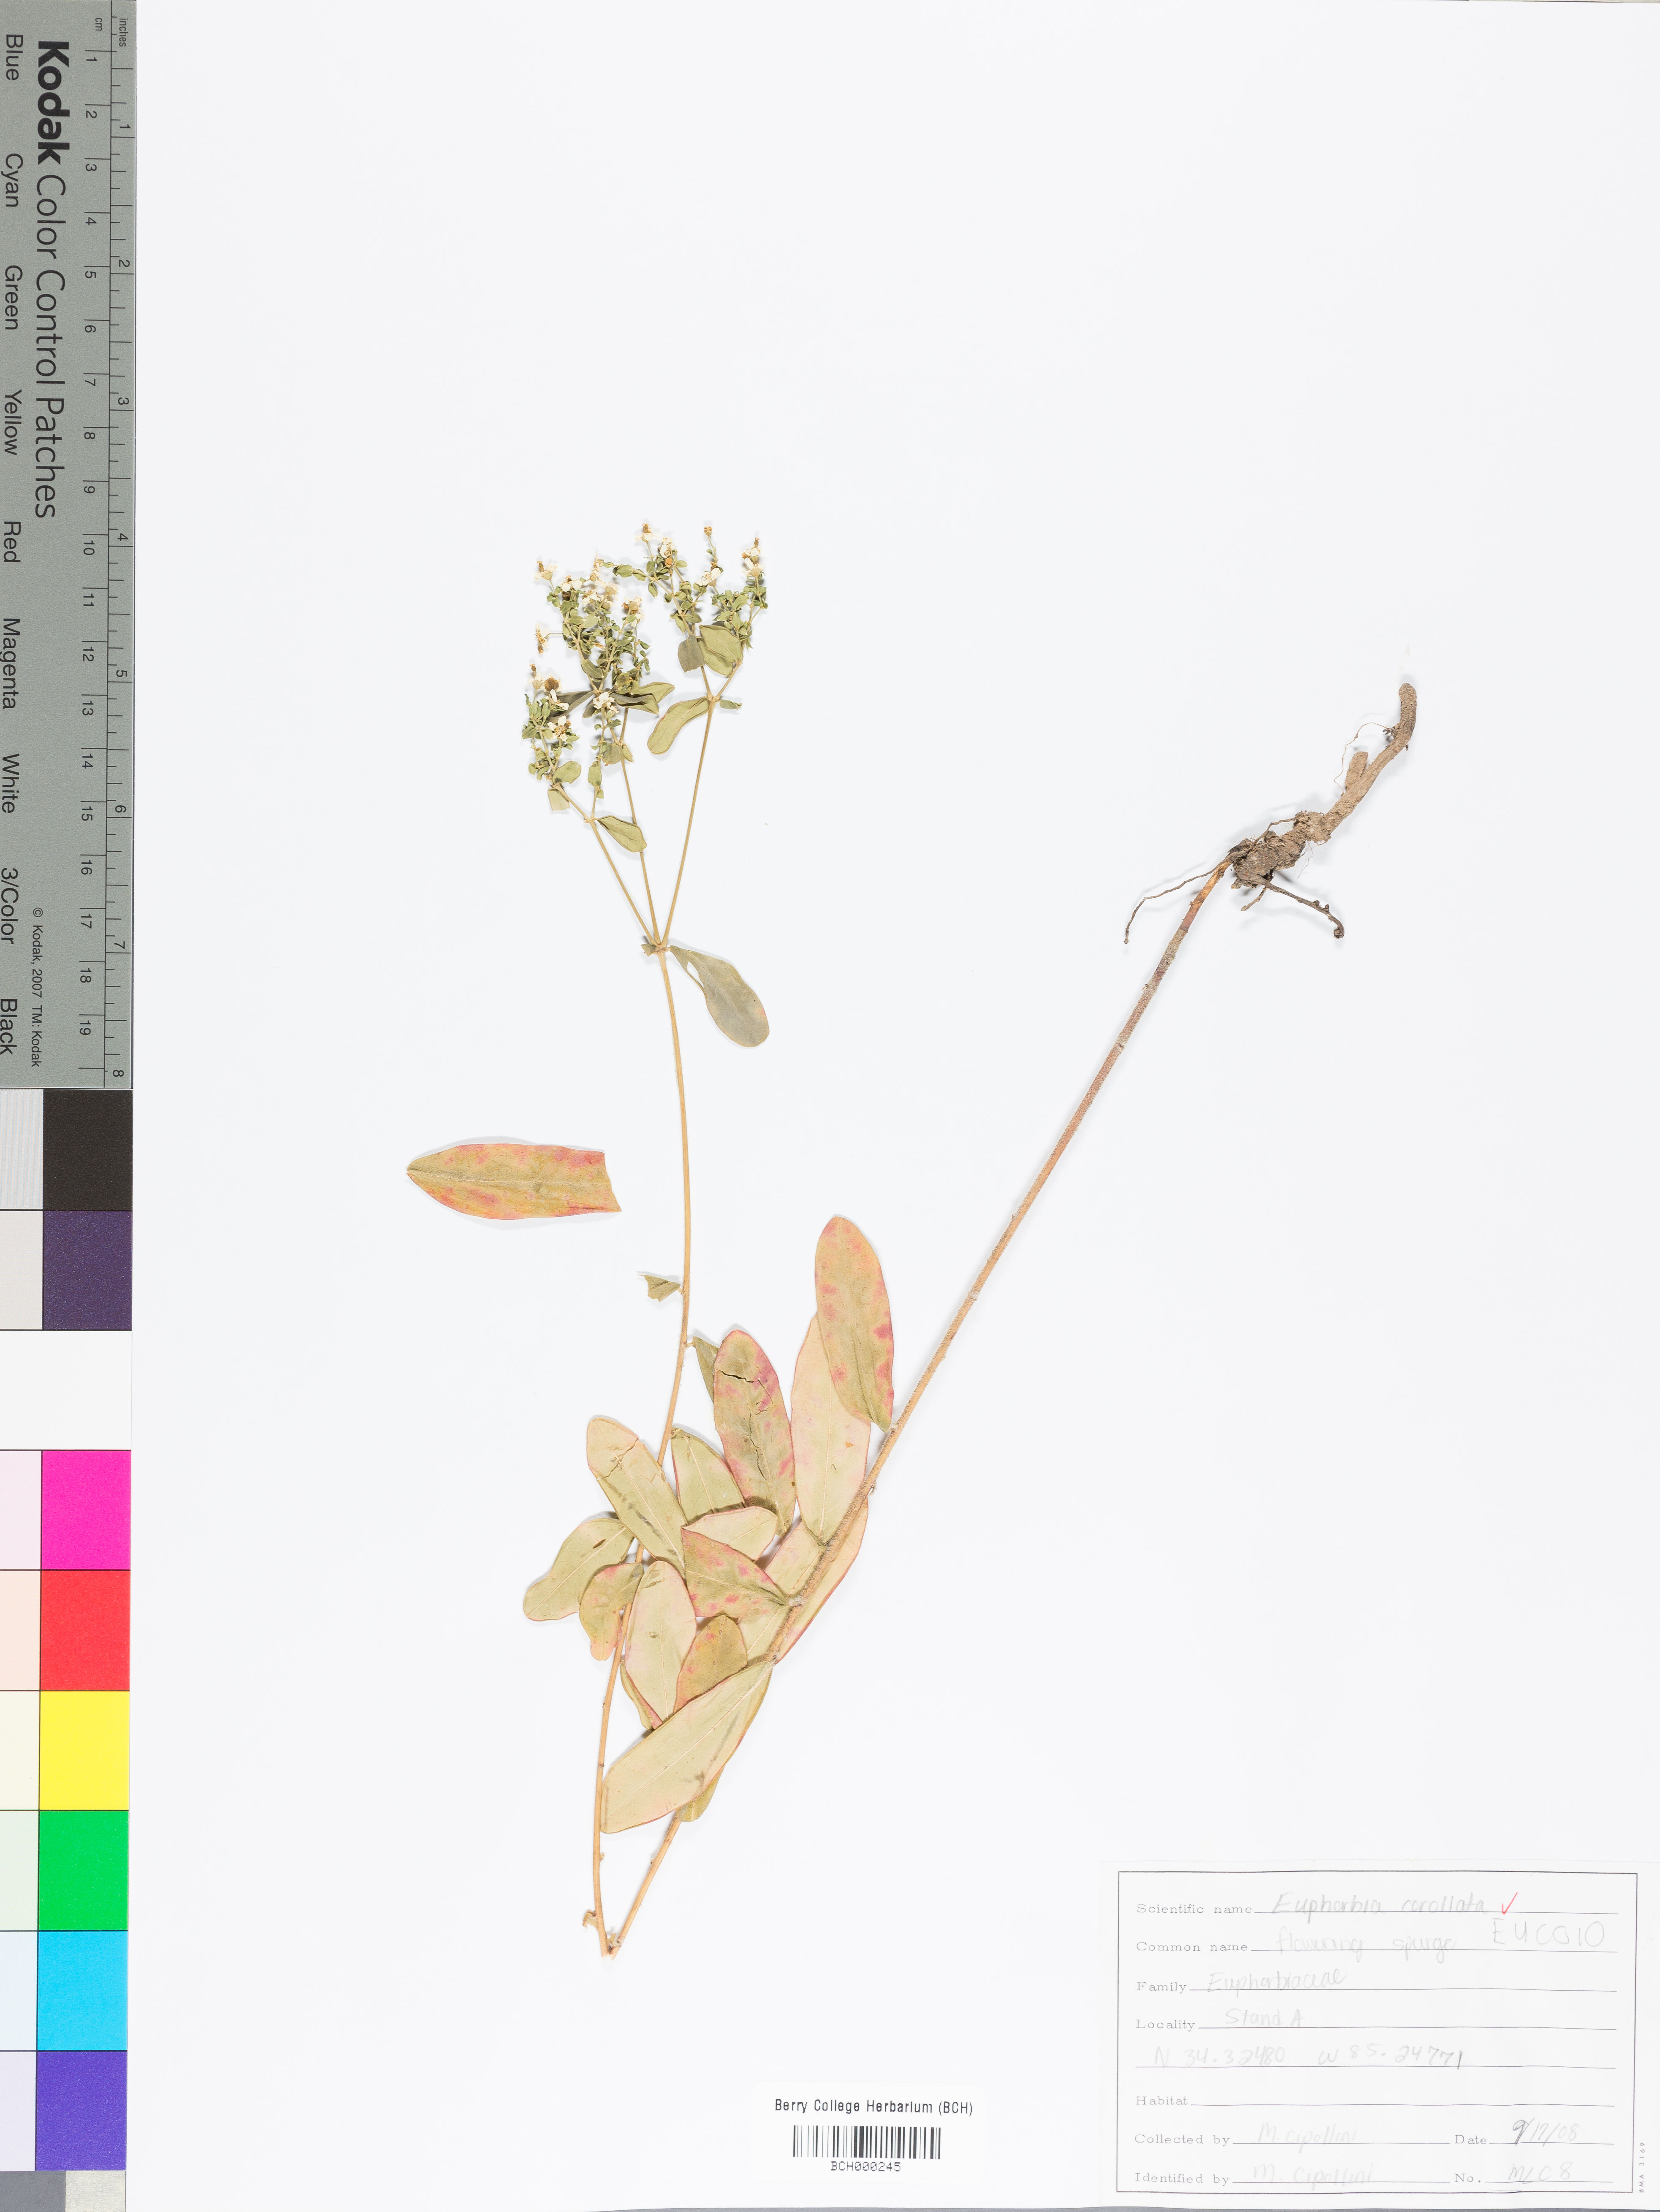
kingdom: Plantae
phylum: Tracheophyta
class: Magnoliopsida
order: Malpighiales
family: Euphorbiaceae
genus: Euphorbia
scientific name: Euphorbia corollata
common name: Flowering spurge
